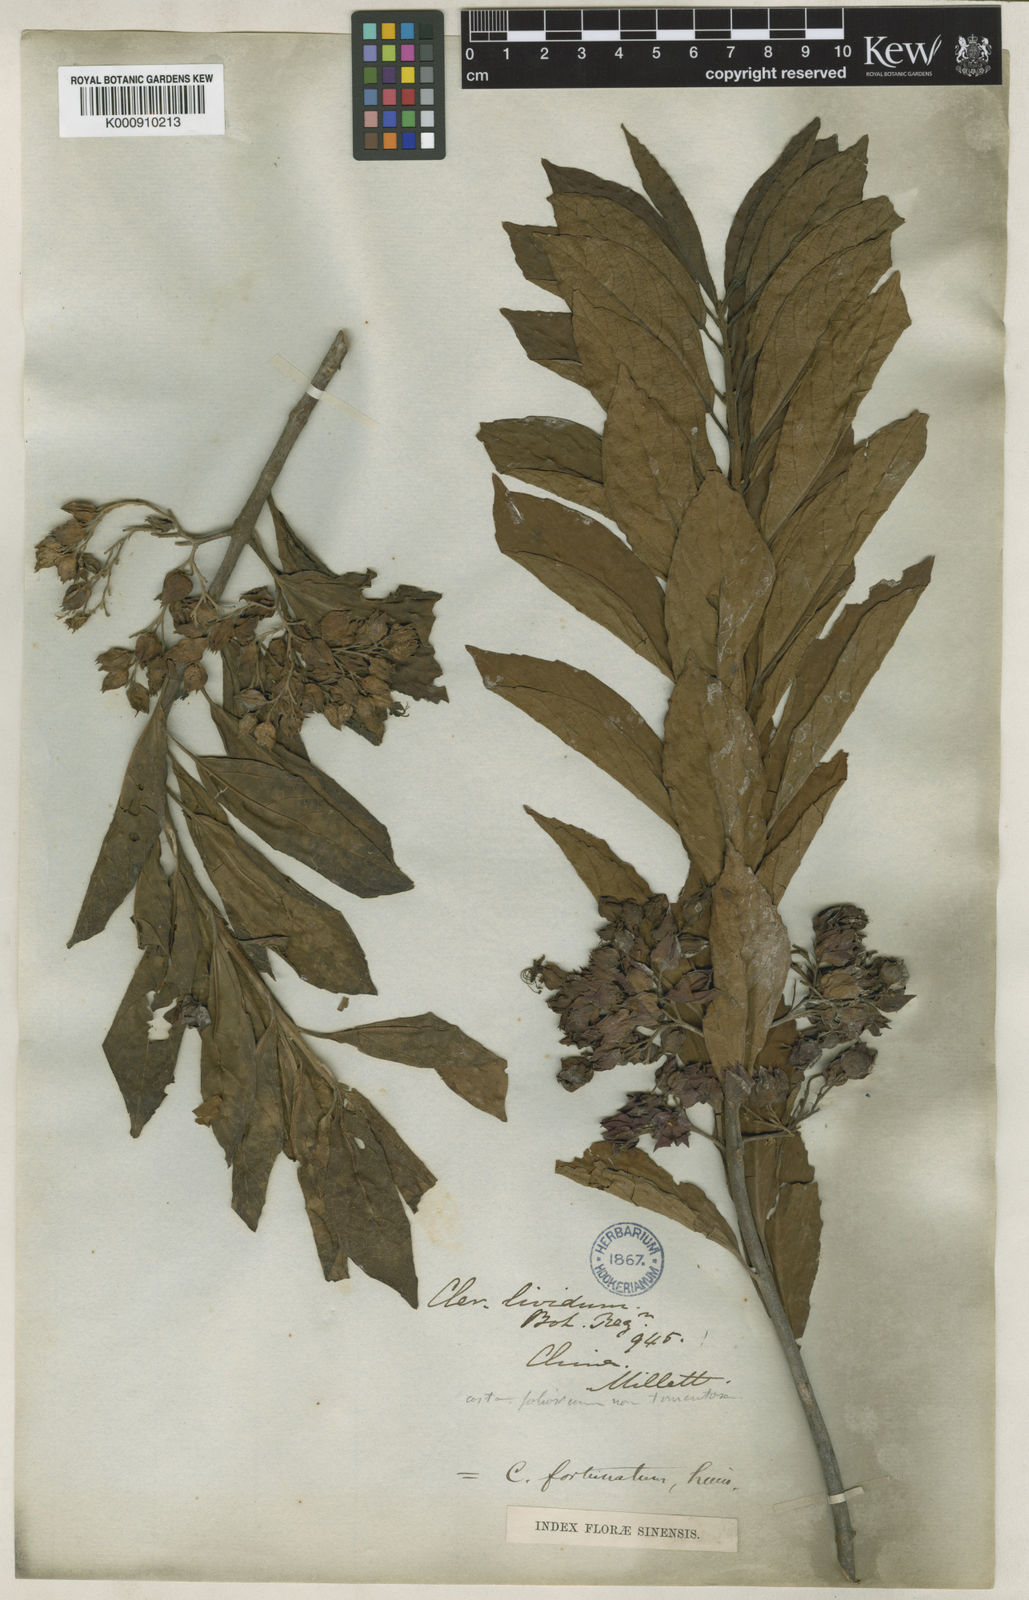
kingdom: Plantae
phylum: Tracheophyta
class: Magnoliopsida
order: Lamiales
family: Lamiaceae
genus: Clerodendrum
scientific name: Clerodendrum fortunatum
